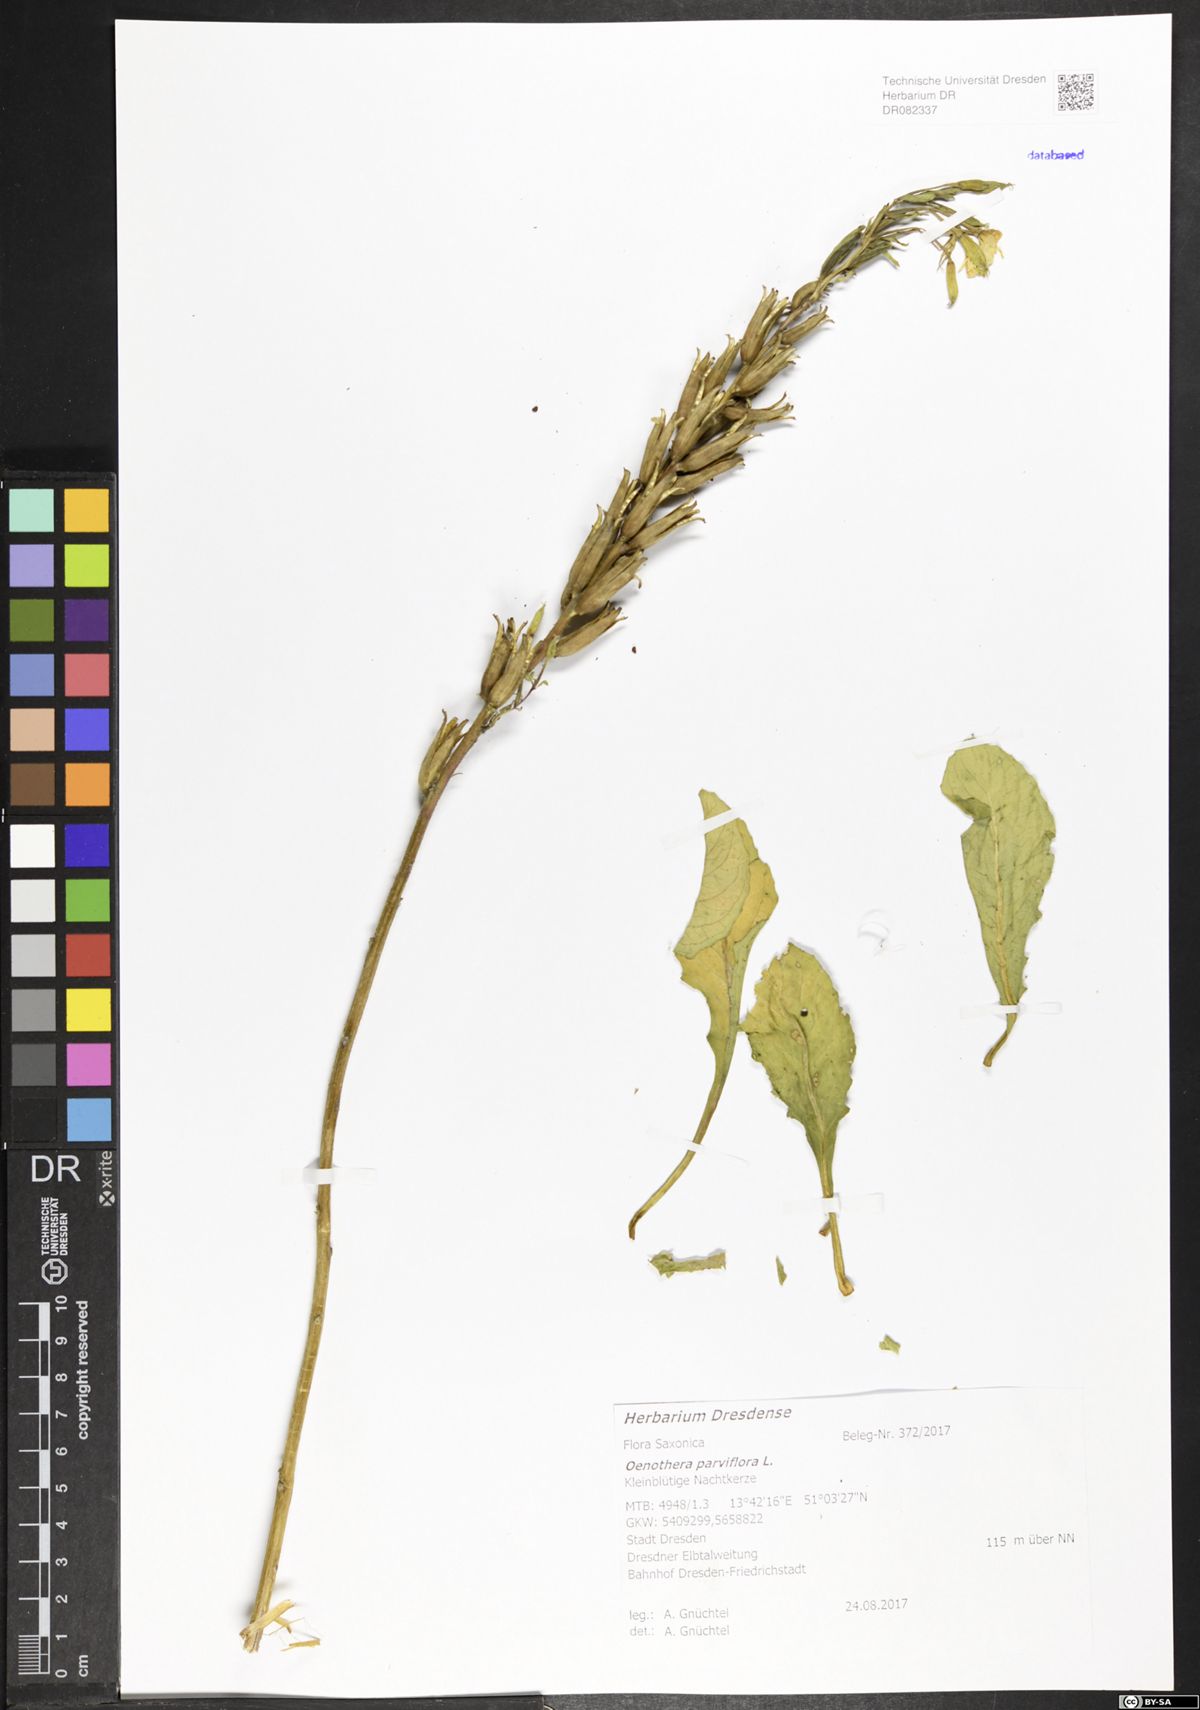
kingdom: Plantae
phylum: Tracheophyta
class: Magnoliopsida
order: Myrtales
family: Onagraceae
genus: Oenothera
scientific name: Oenothera parviflora
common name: Least evening-primrose
